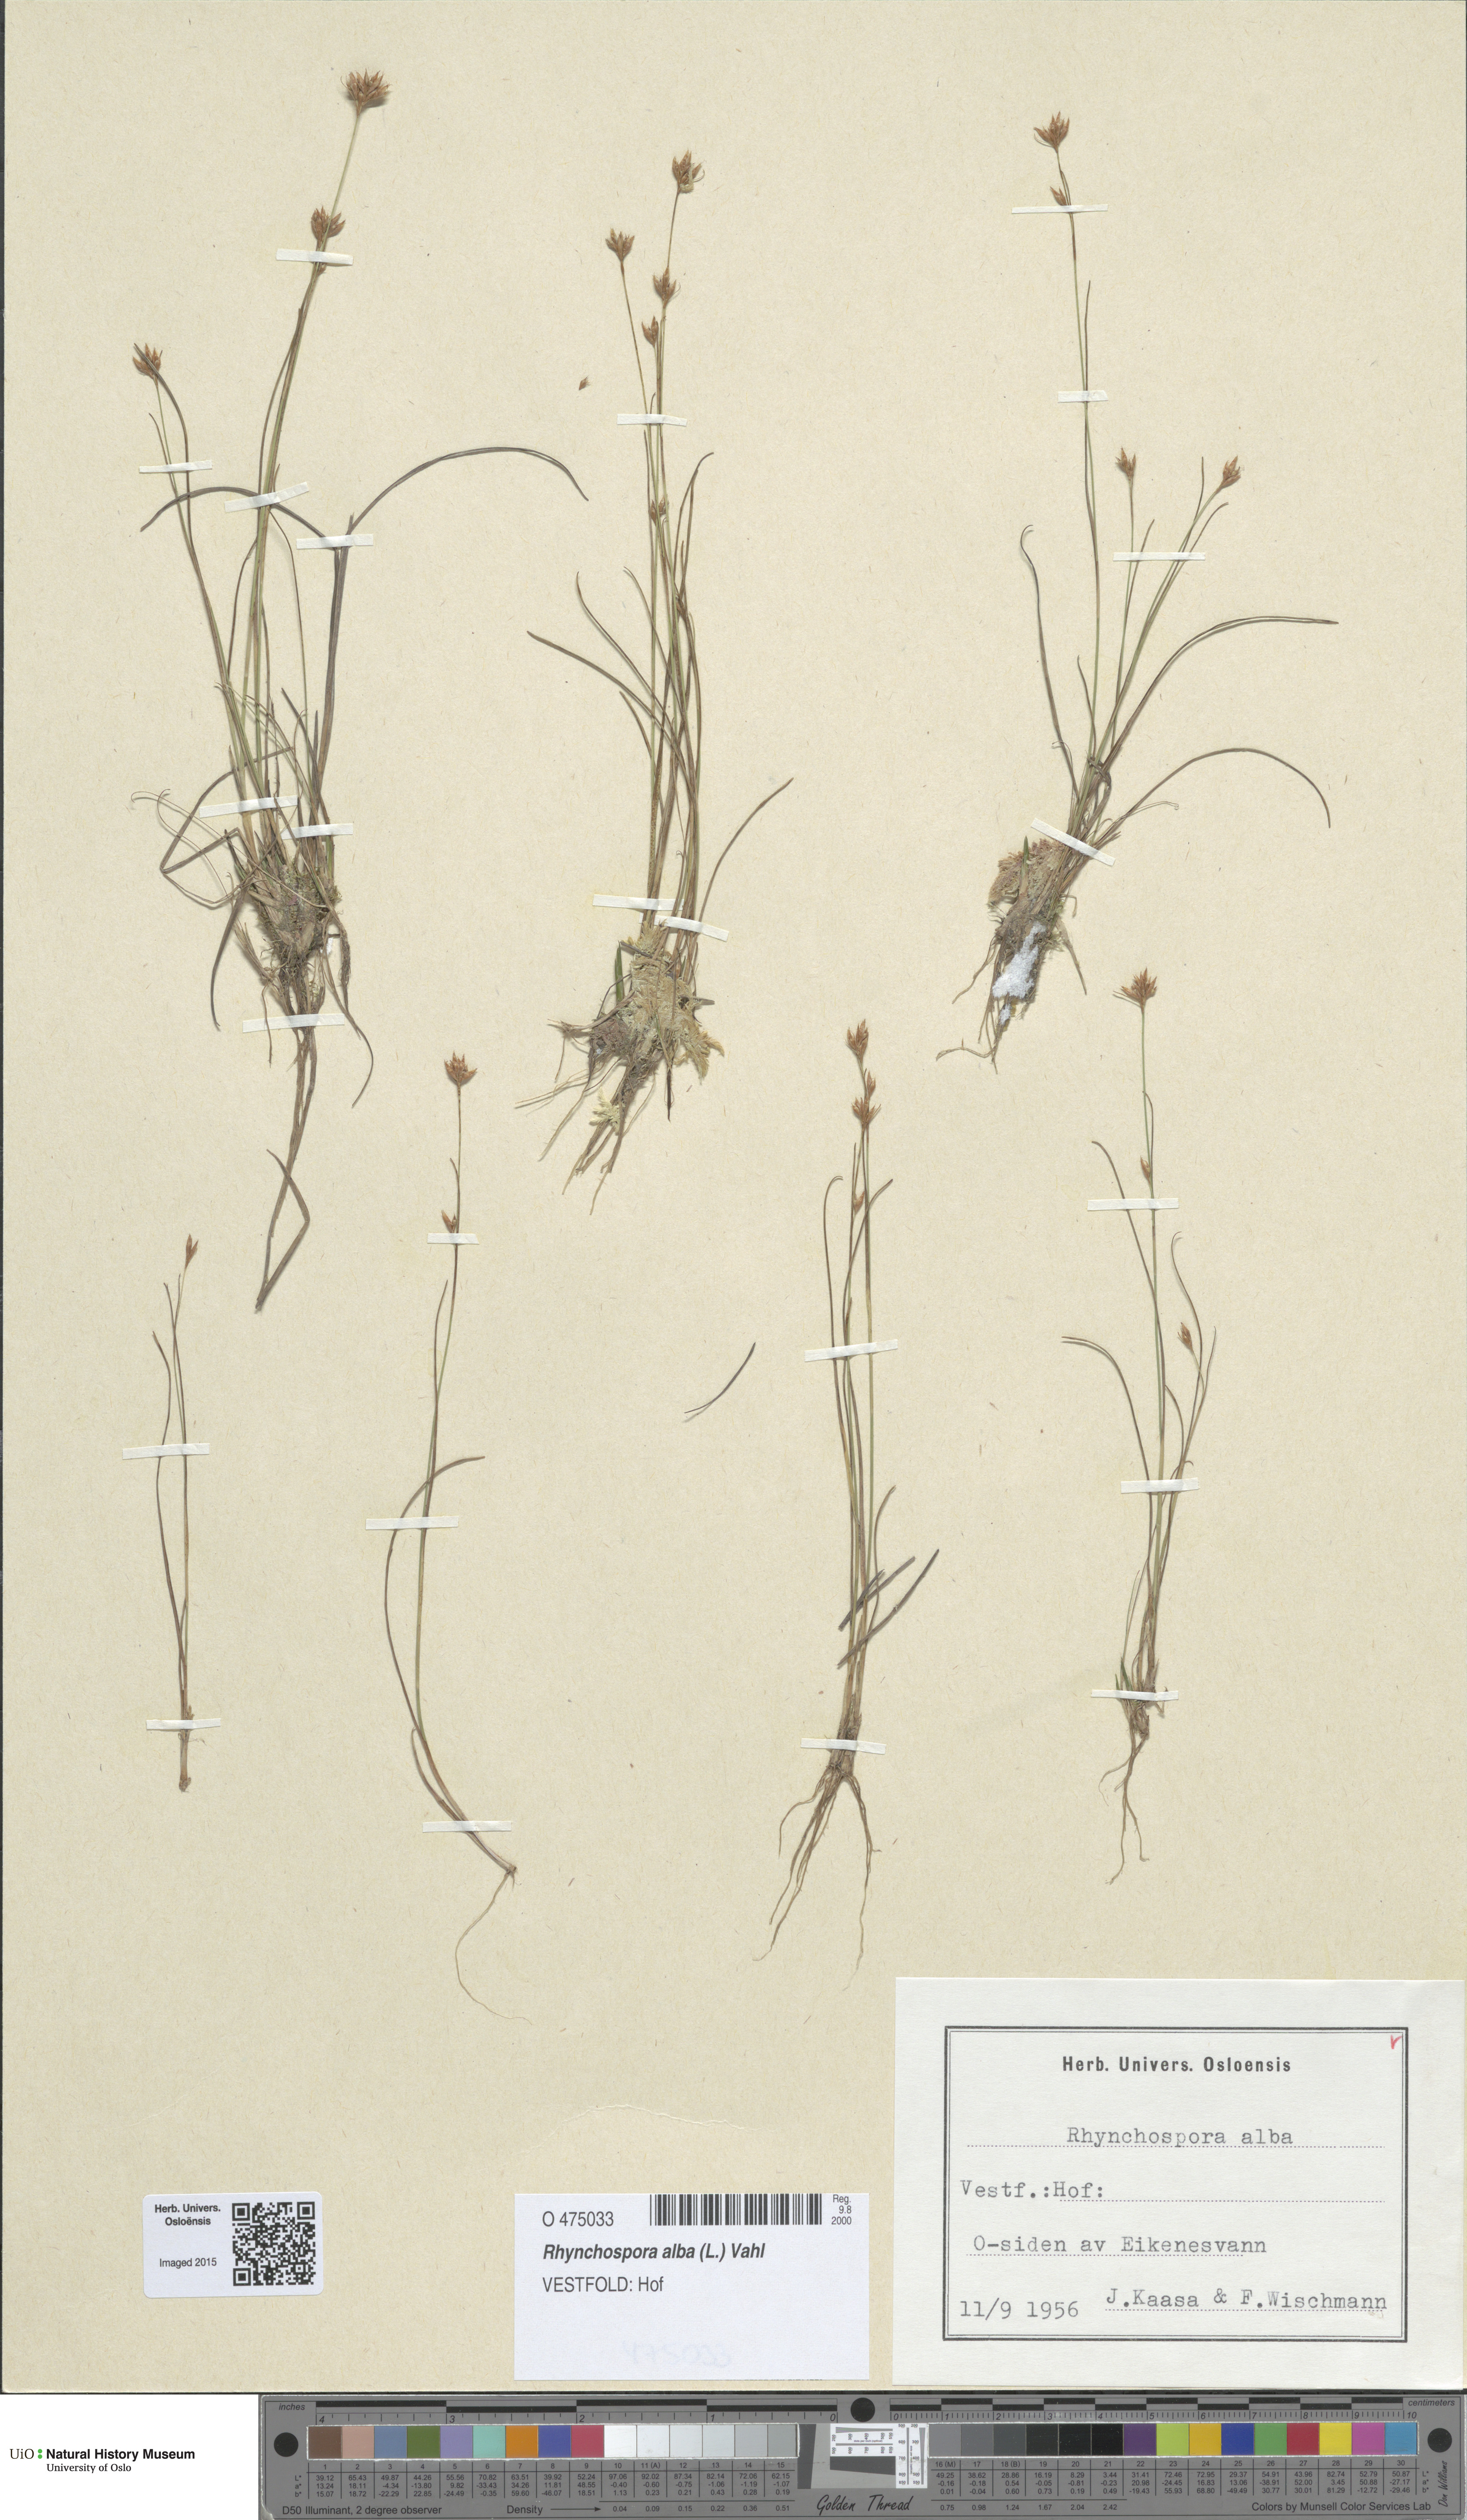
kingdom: Plantae
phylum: Tracheophyta
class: Liliopsida
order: Poales
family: Cyperaceae
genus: Rhynchospora
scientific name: Rhynchospora alba
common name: White beak-sedge
